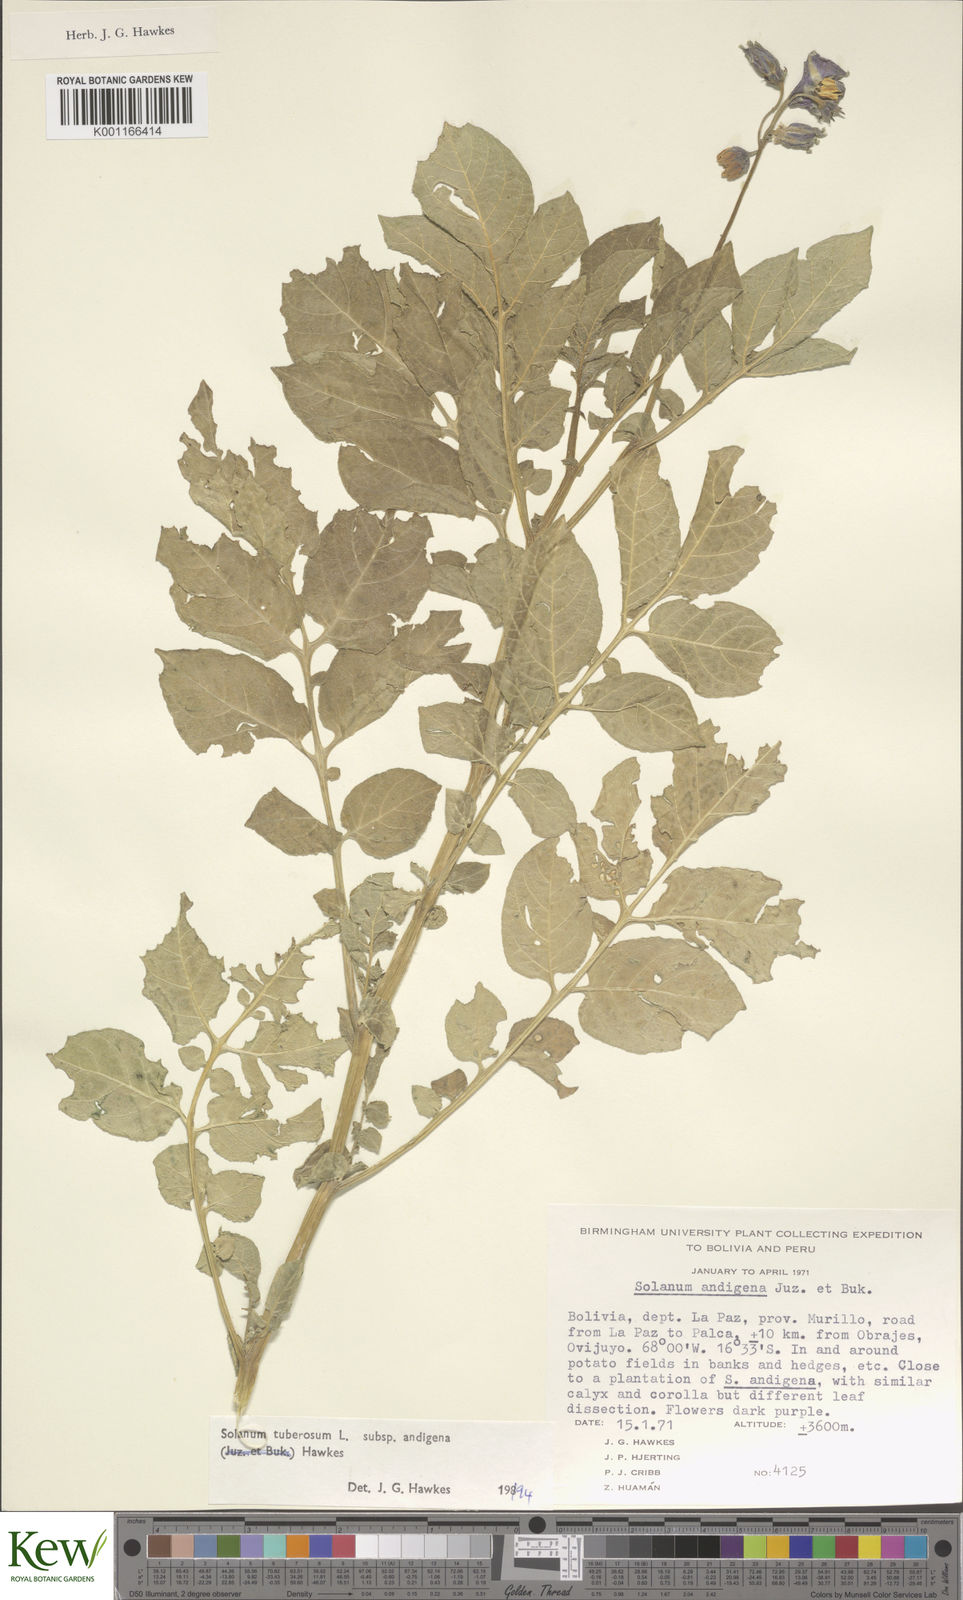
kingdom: Plantae
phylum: Tracheophyta
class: Magnoliopsida
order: Solanales
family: Solanaceae
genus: Solanum
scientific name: Solanum tuberosum
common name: Potato
